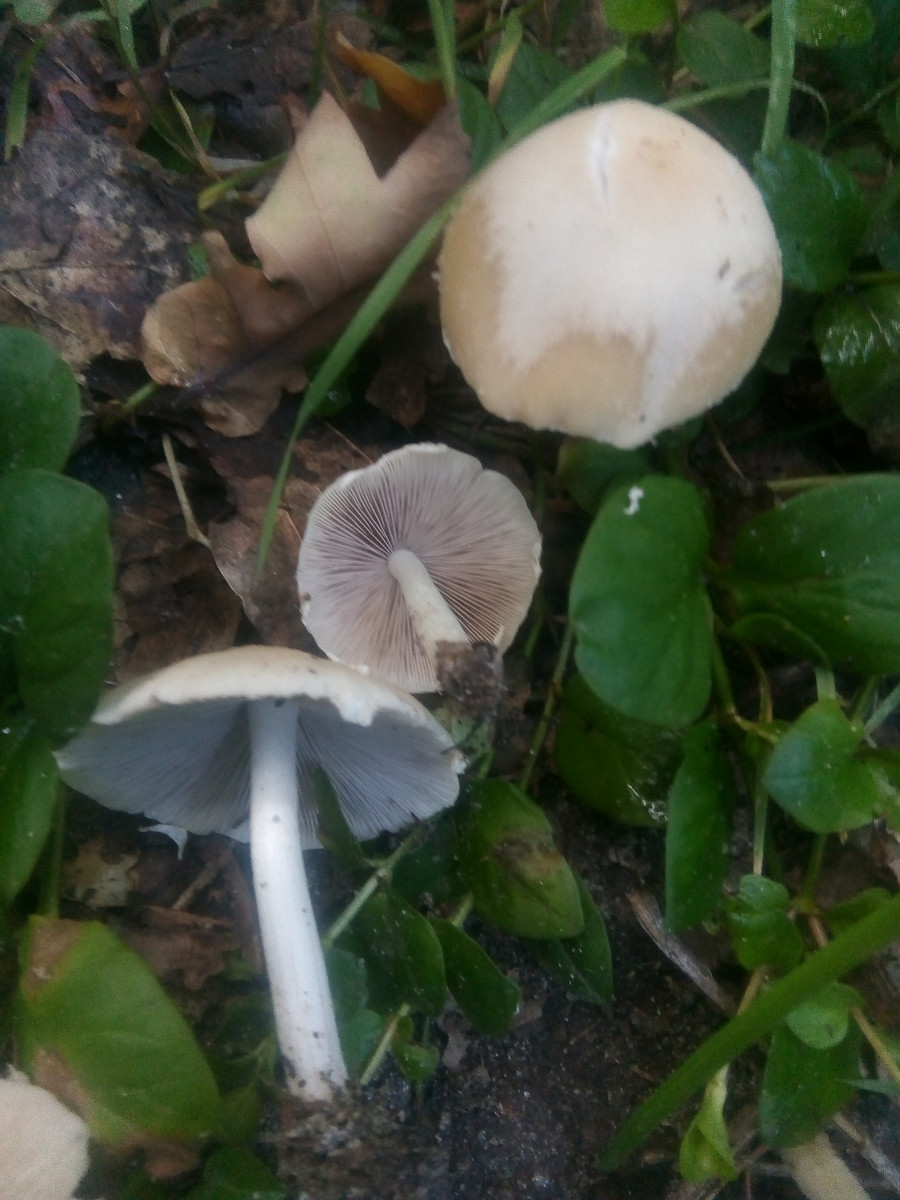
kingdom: Fungi
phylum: Basidiomycota
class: Agaricomycetes
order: Agaricales
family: Psathyrellaceae
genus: Candolleomyces
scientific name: Candolleomyces candolleanus
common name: Candolles mørkhat
